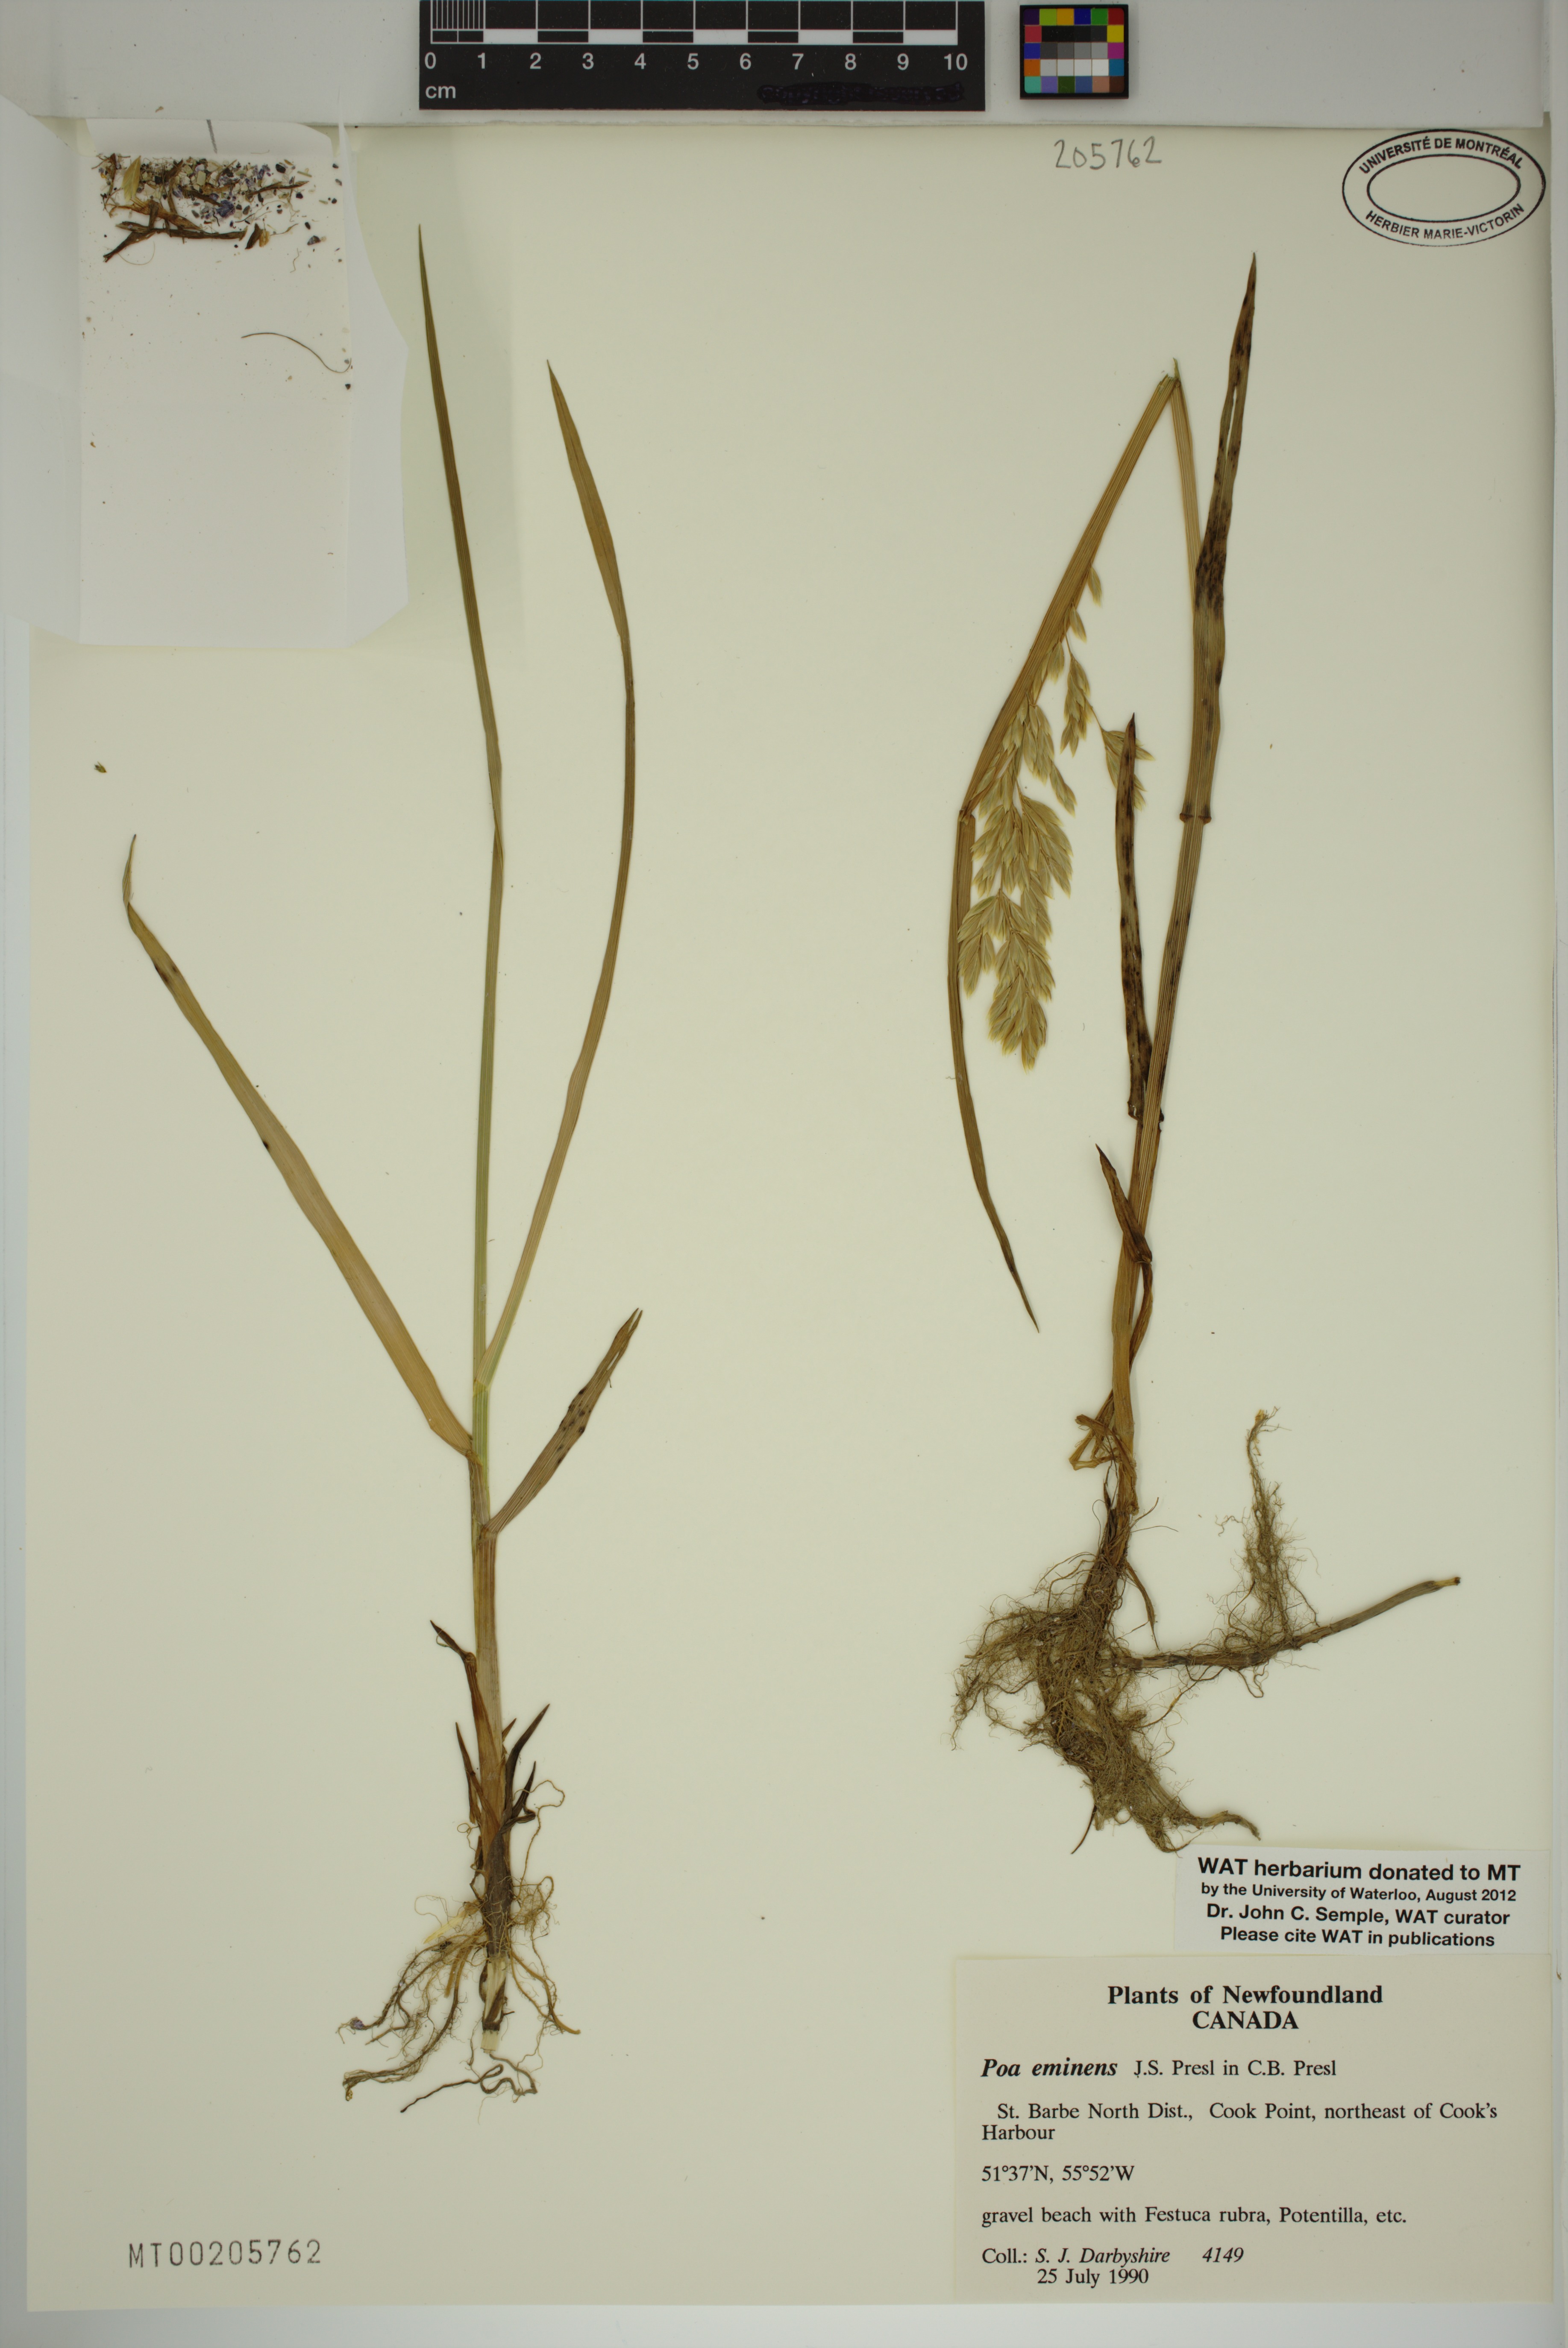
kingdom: Plantae
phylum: Tracheophyta
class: Liliopsida
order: Poales
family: Poaceae
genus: Arctopoa
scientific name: Arctopoa eminens
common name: Eminent bluegrass
